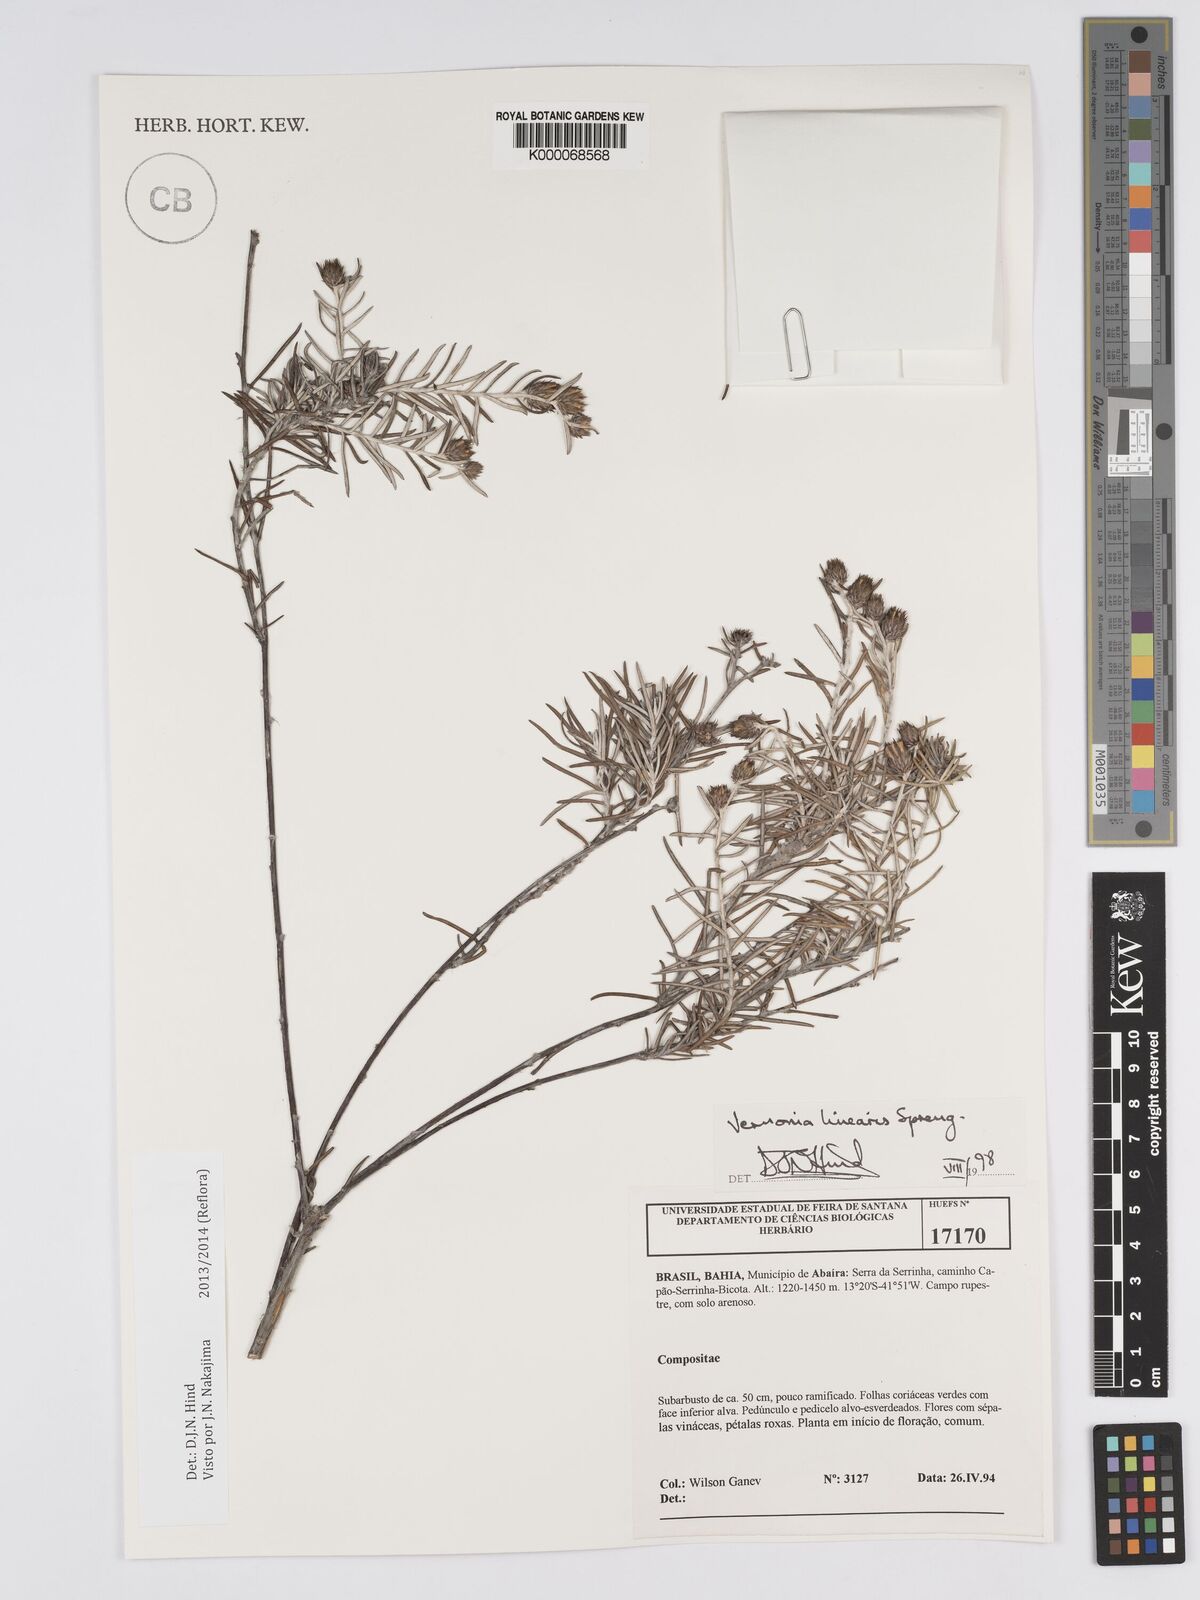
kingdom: Plantae
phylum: Tracheophyta
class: Magnoliopsida
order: Asterales
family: Asteraceae
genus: Lessingianthus
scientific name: Lessingianthus linearis
